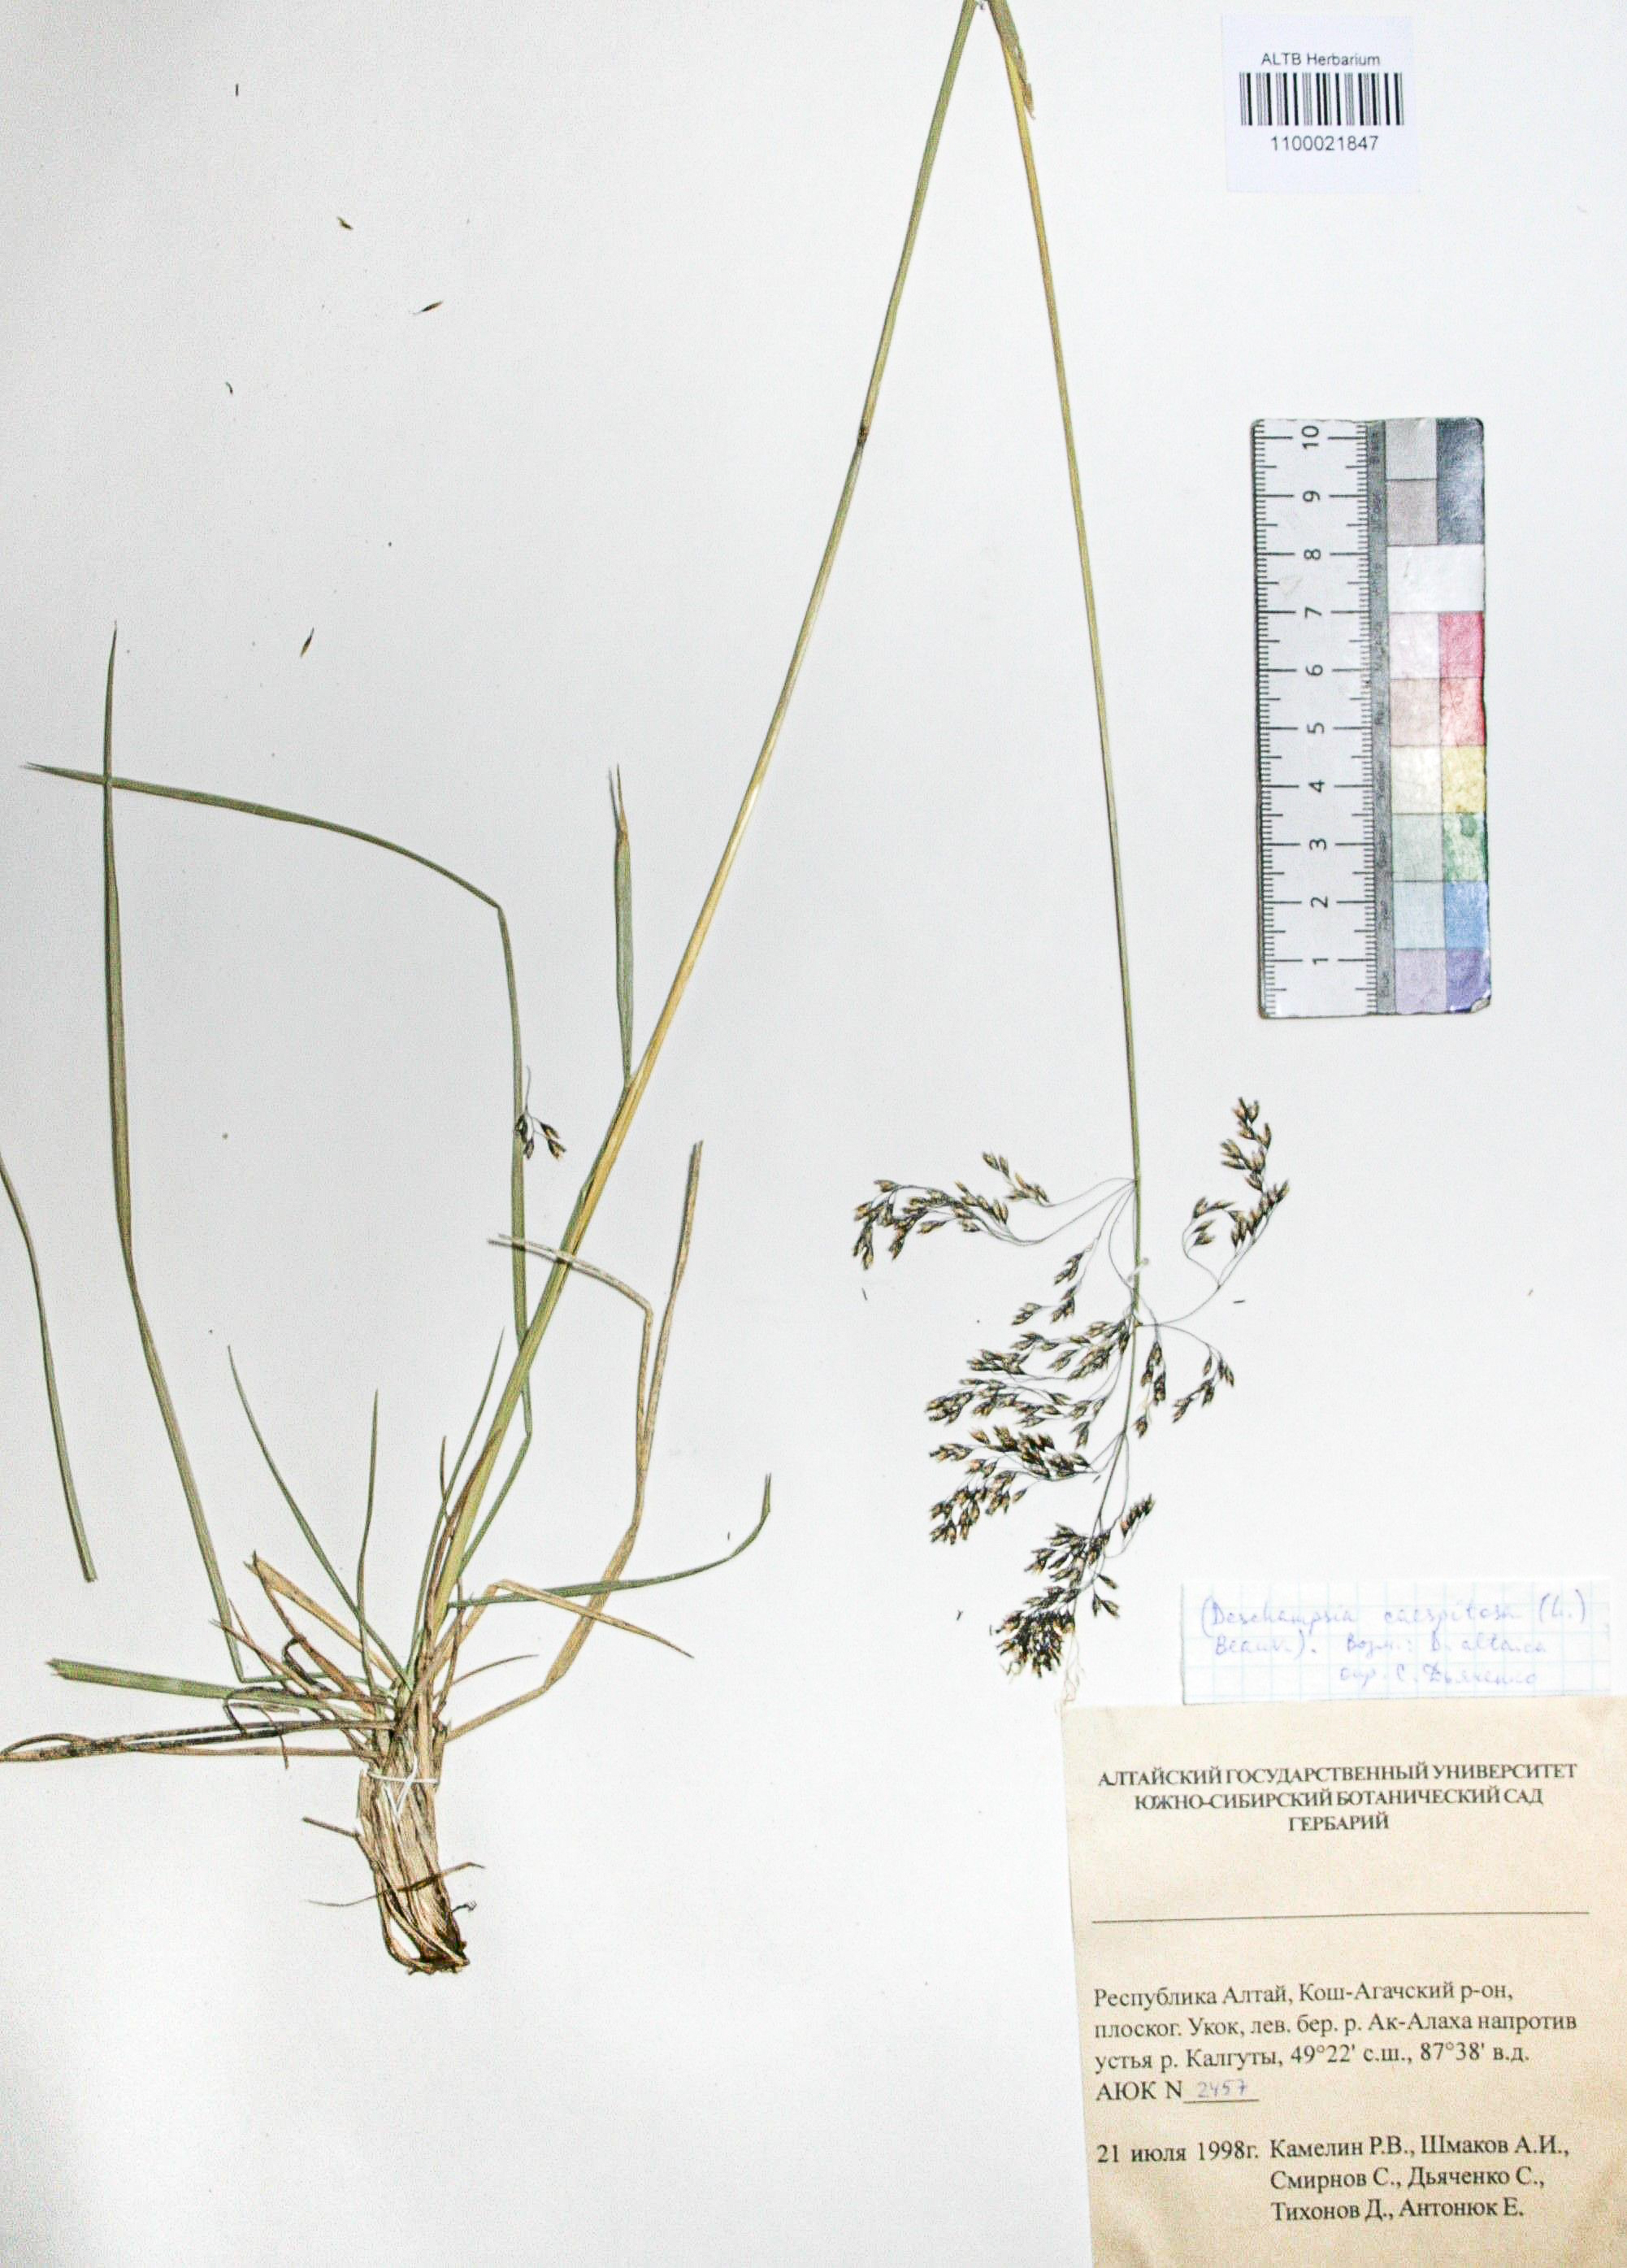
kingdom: Plantae
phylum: Tracheophyta
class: Liliopsida
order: Poales
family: Poaceae
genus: Deschampsia
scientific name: Deschampsia cespitosa
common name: Tufted hair-grass
